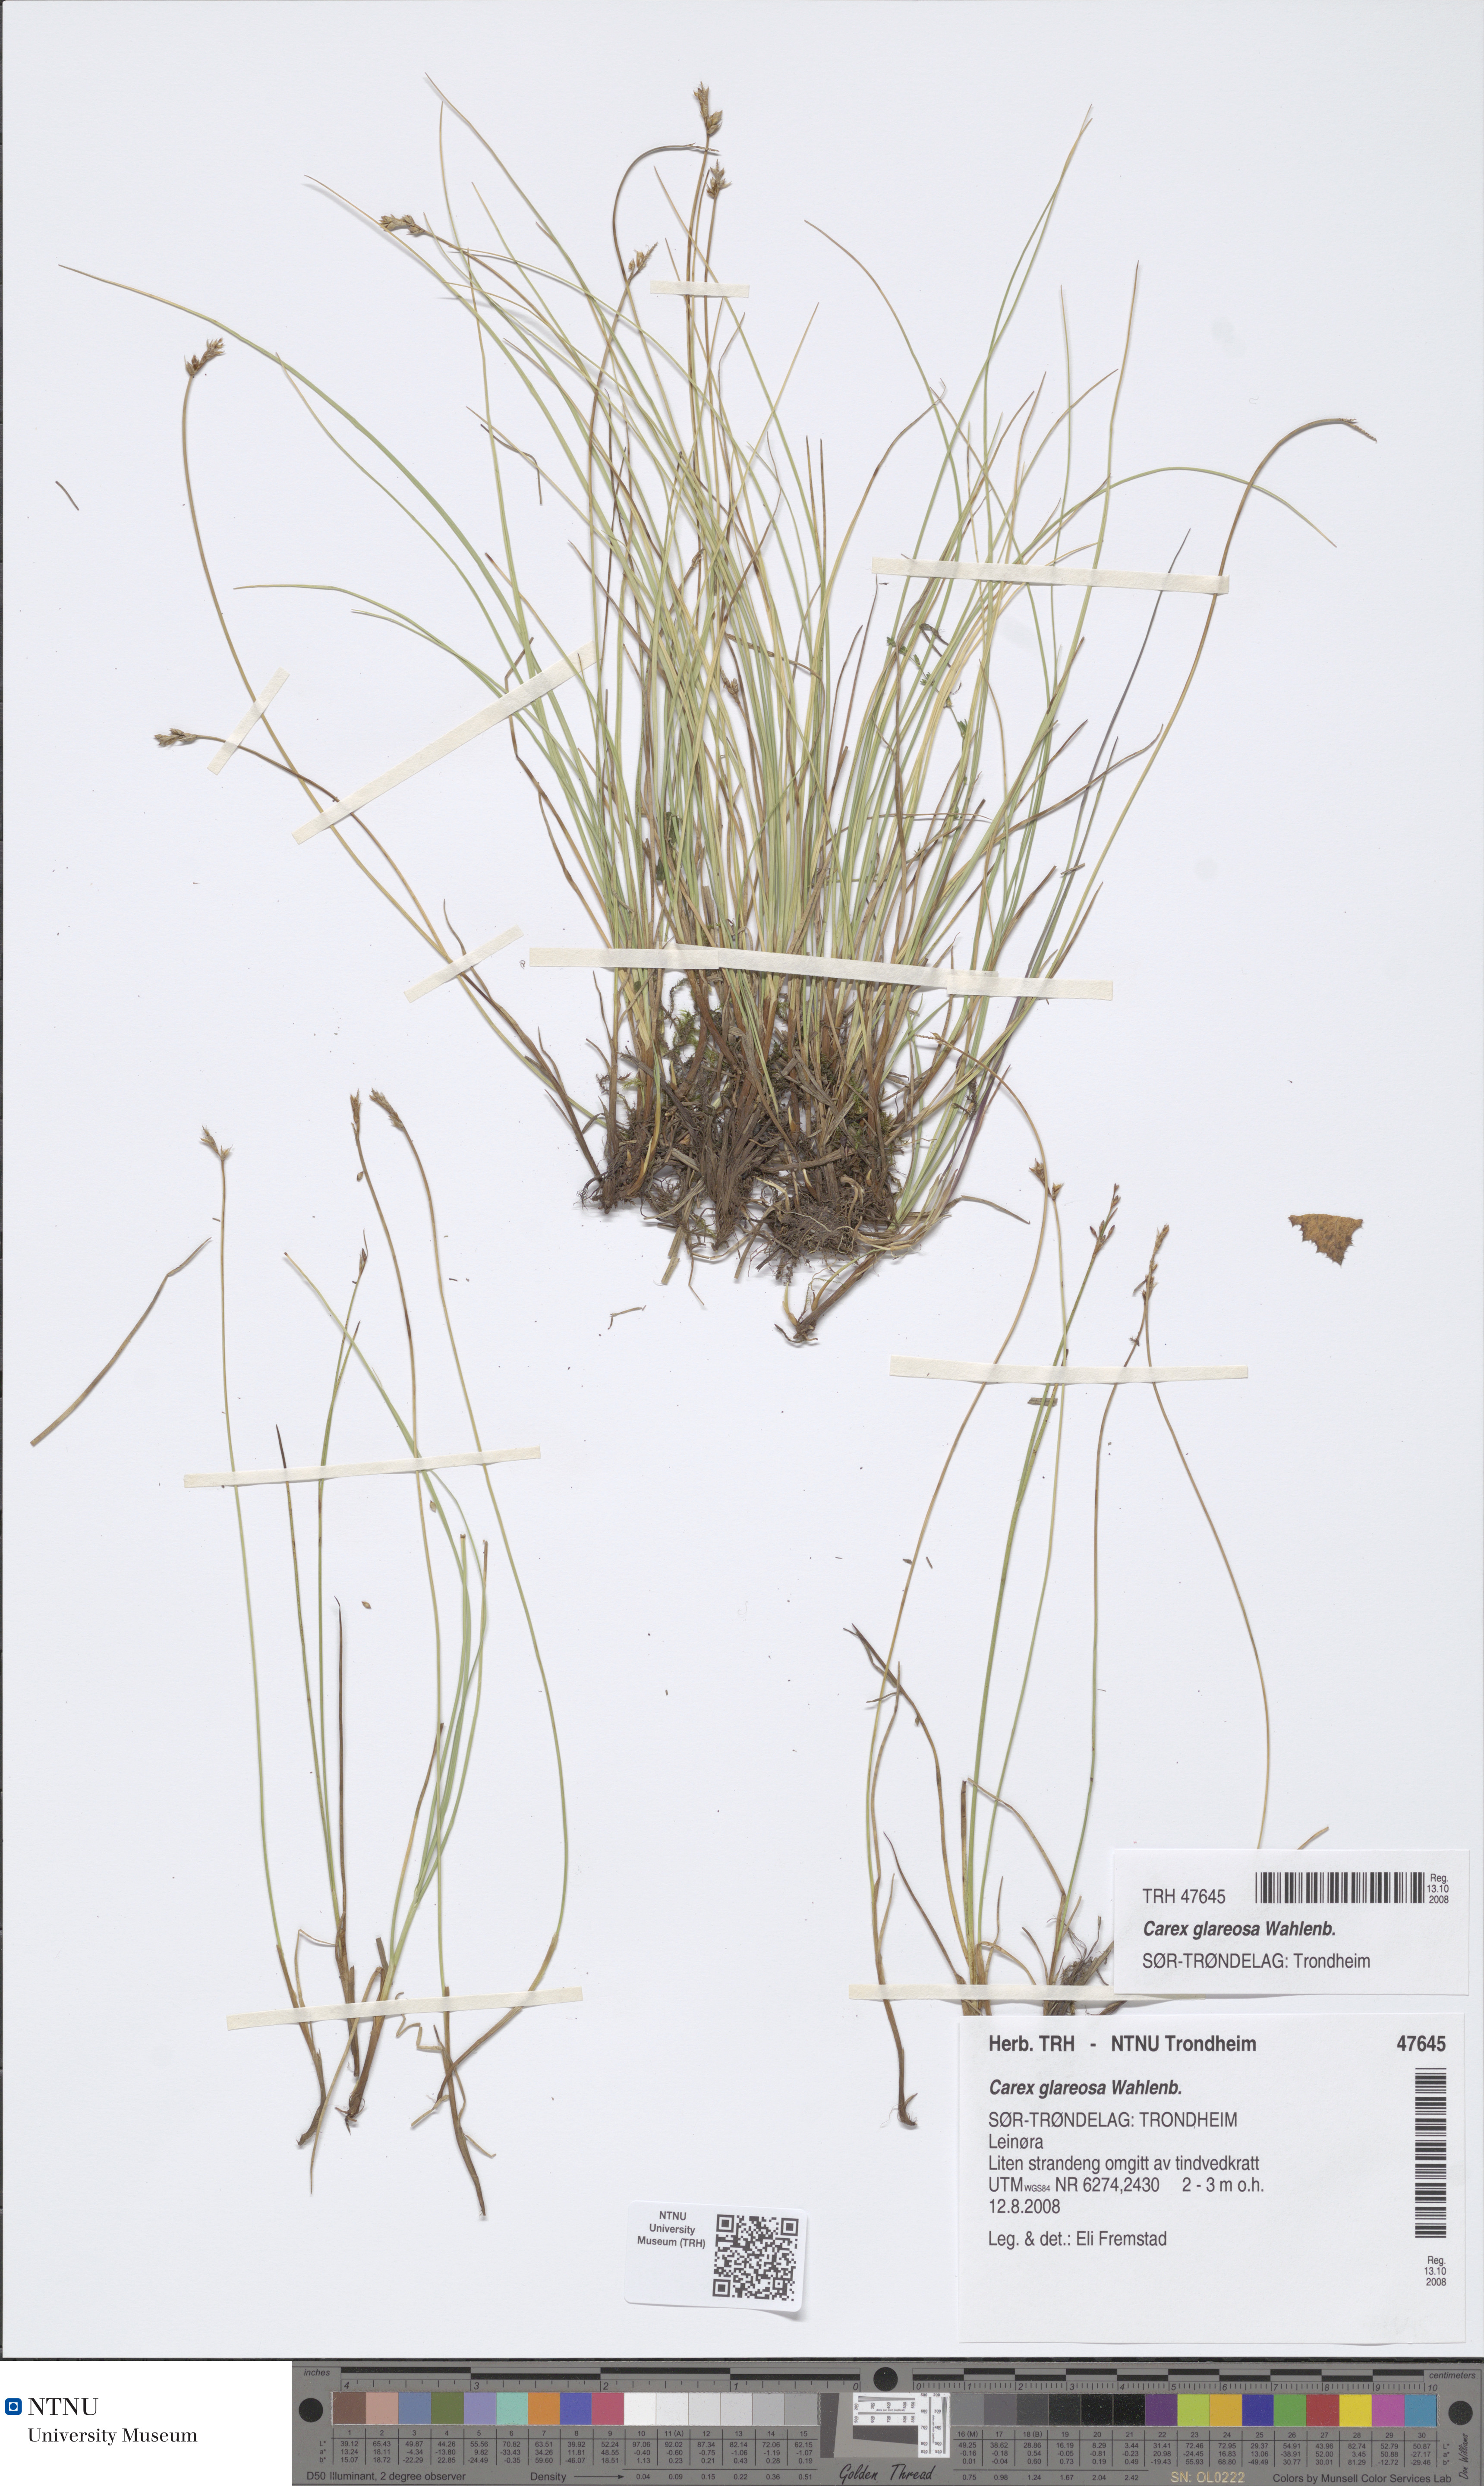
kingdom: Plantae
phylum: Tracheophyta
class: Liliopsida
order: Poales
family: Cyperaceae
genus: Carex
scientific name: Carex glareosa
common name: Clustered sedge
